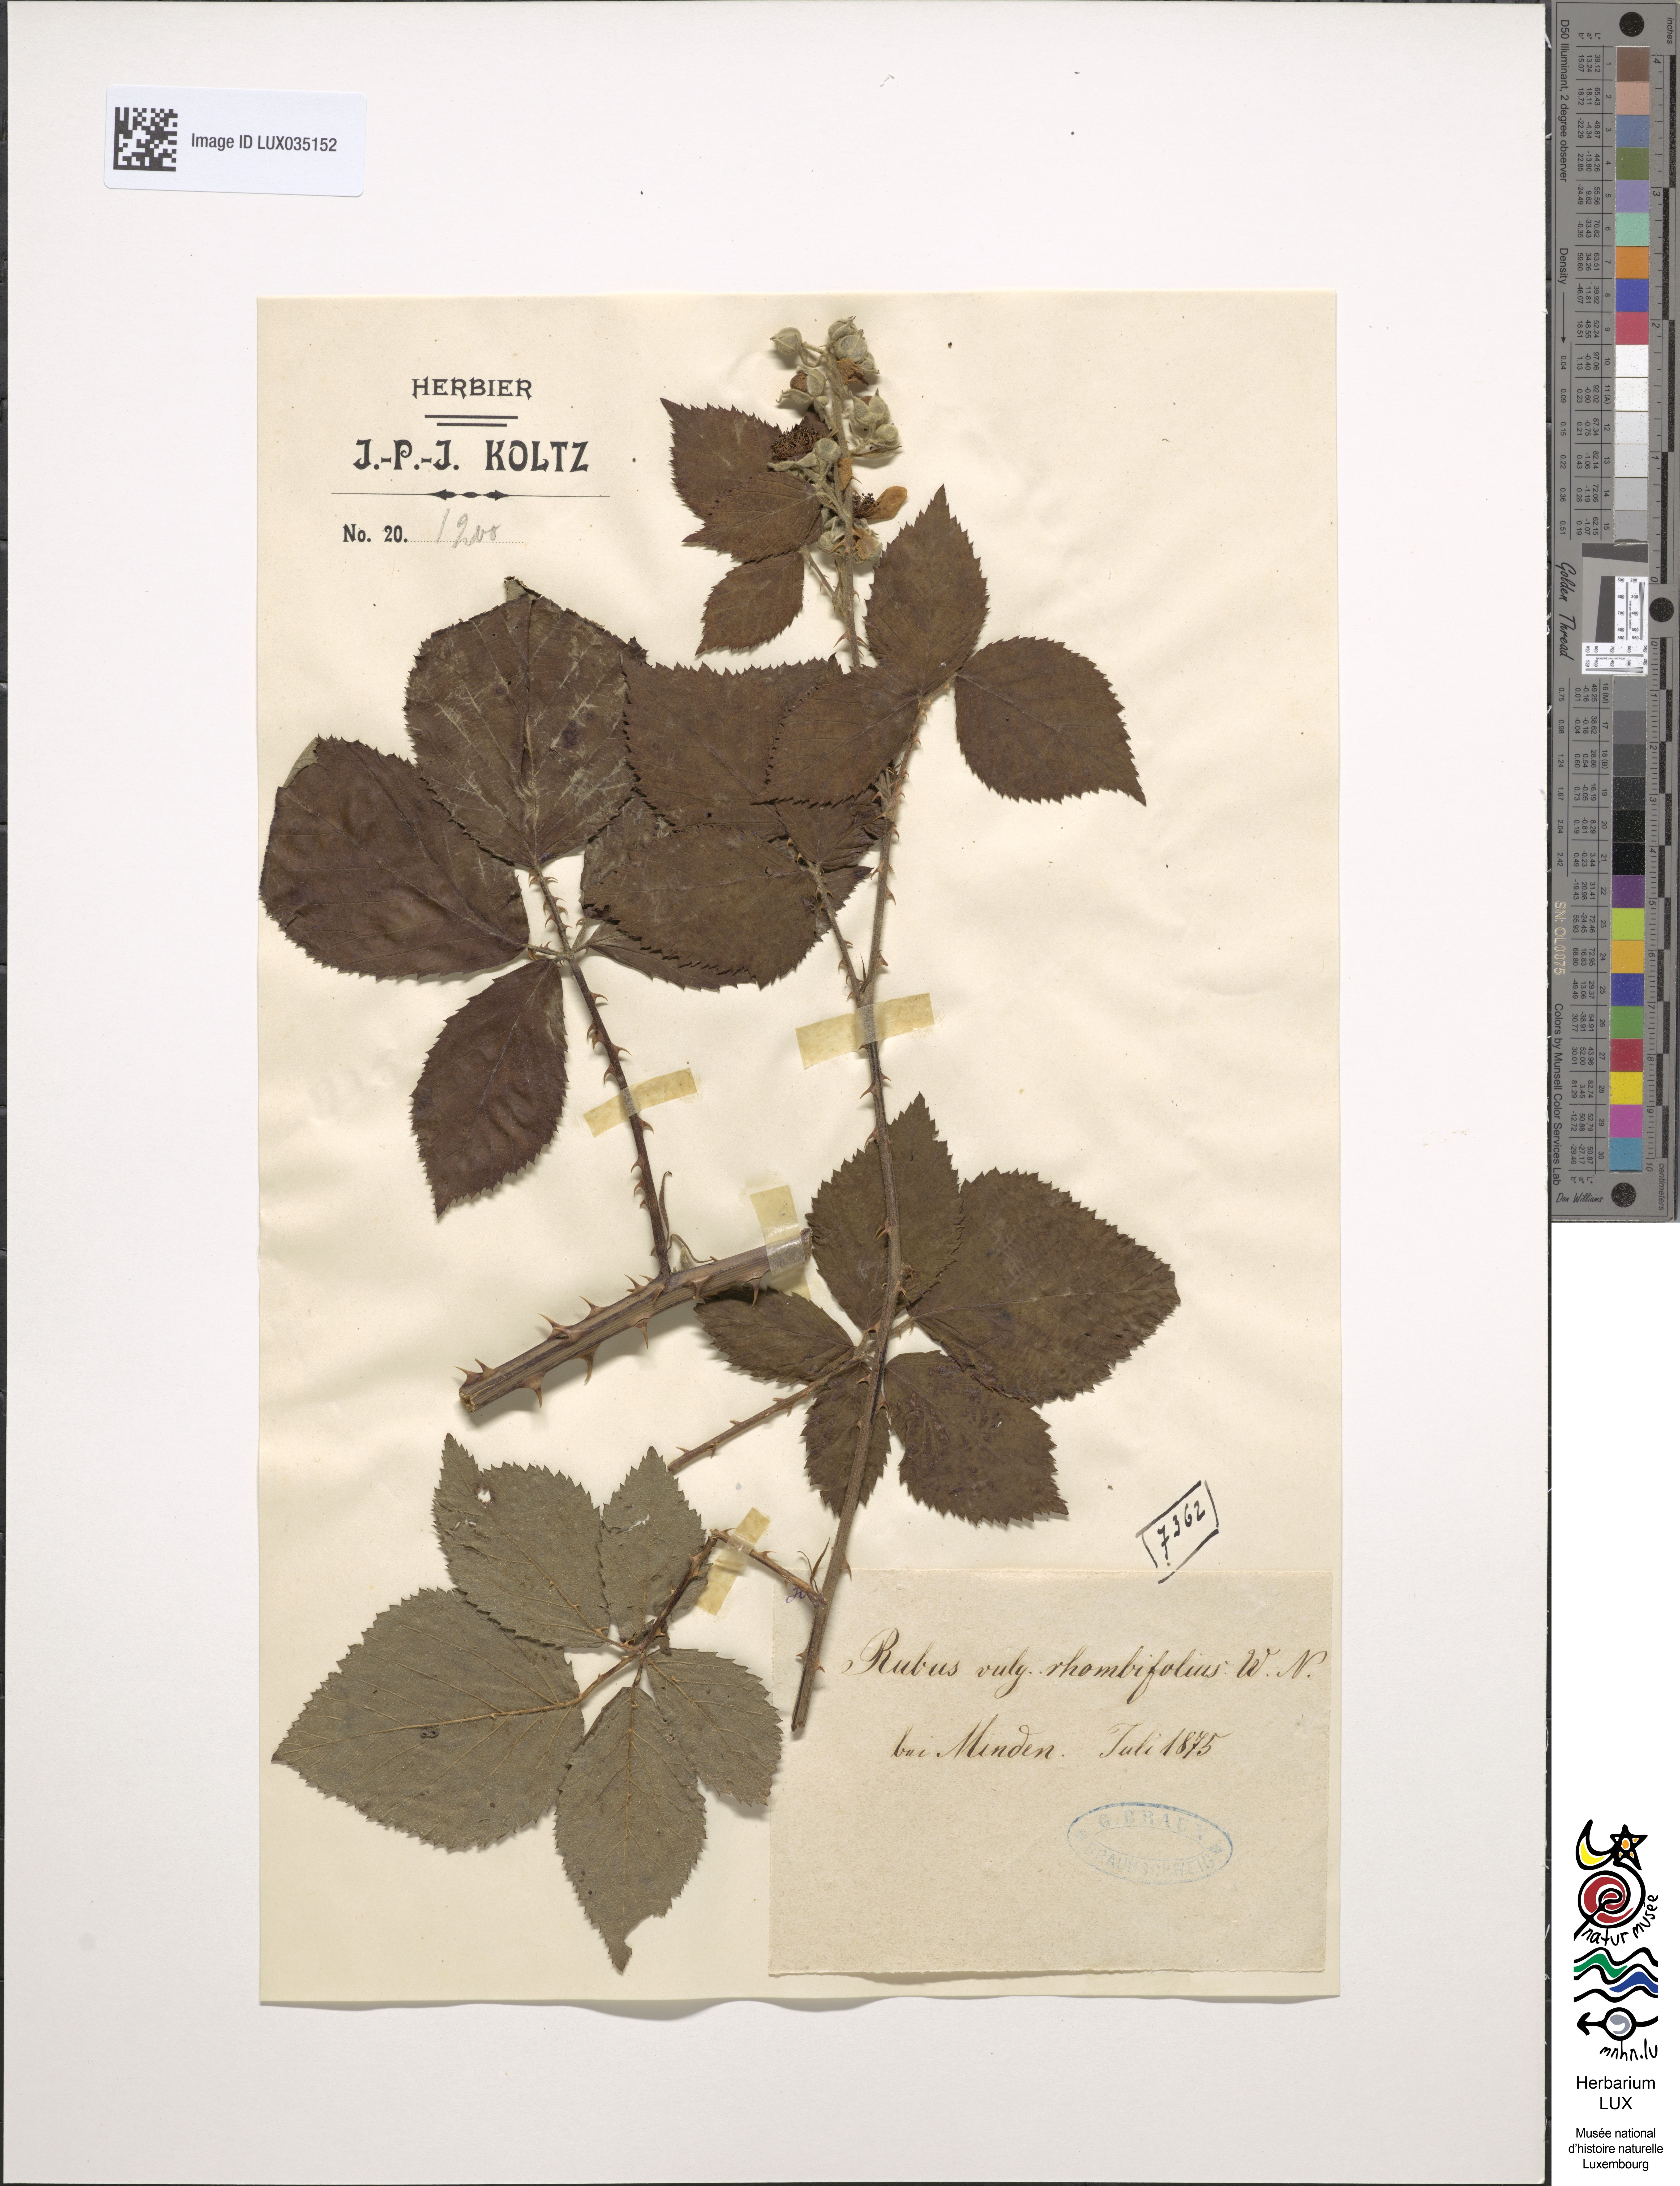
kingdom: Plantae
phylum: Tracheophyta
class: Magnoliopsida
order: Rosales
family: Rosaceae
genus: Rubus
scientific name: Rubus rhombifolius
